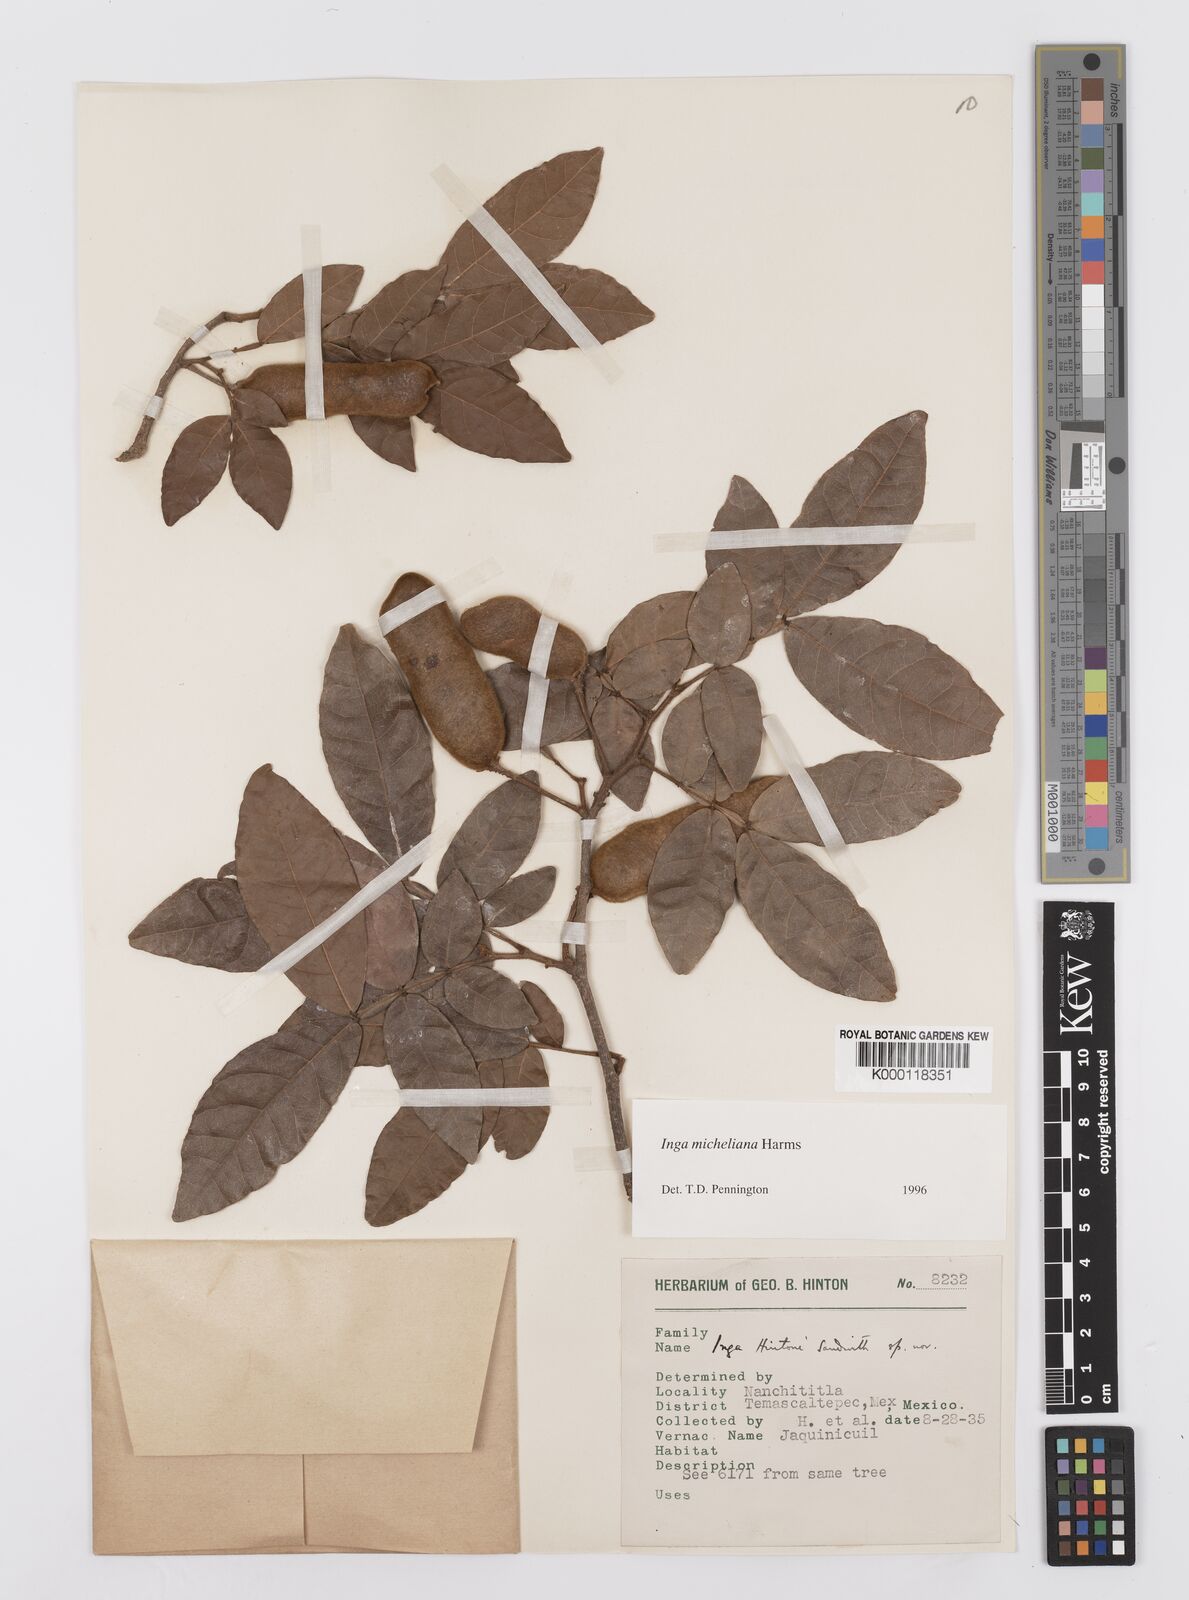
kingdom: Plantae
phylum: Tracheophyta
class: Magnoliopsida
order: Fabales
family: Fabaceae
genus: Inga
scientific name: Inga flexuosa
